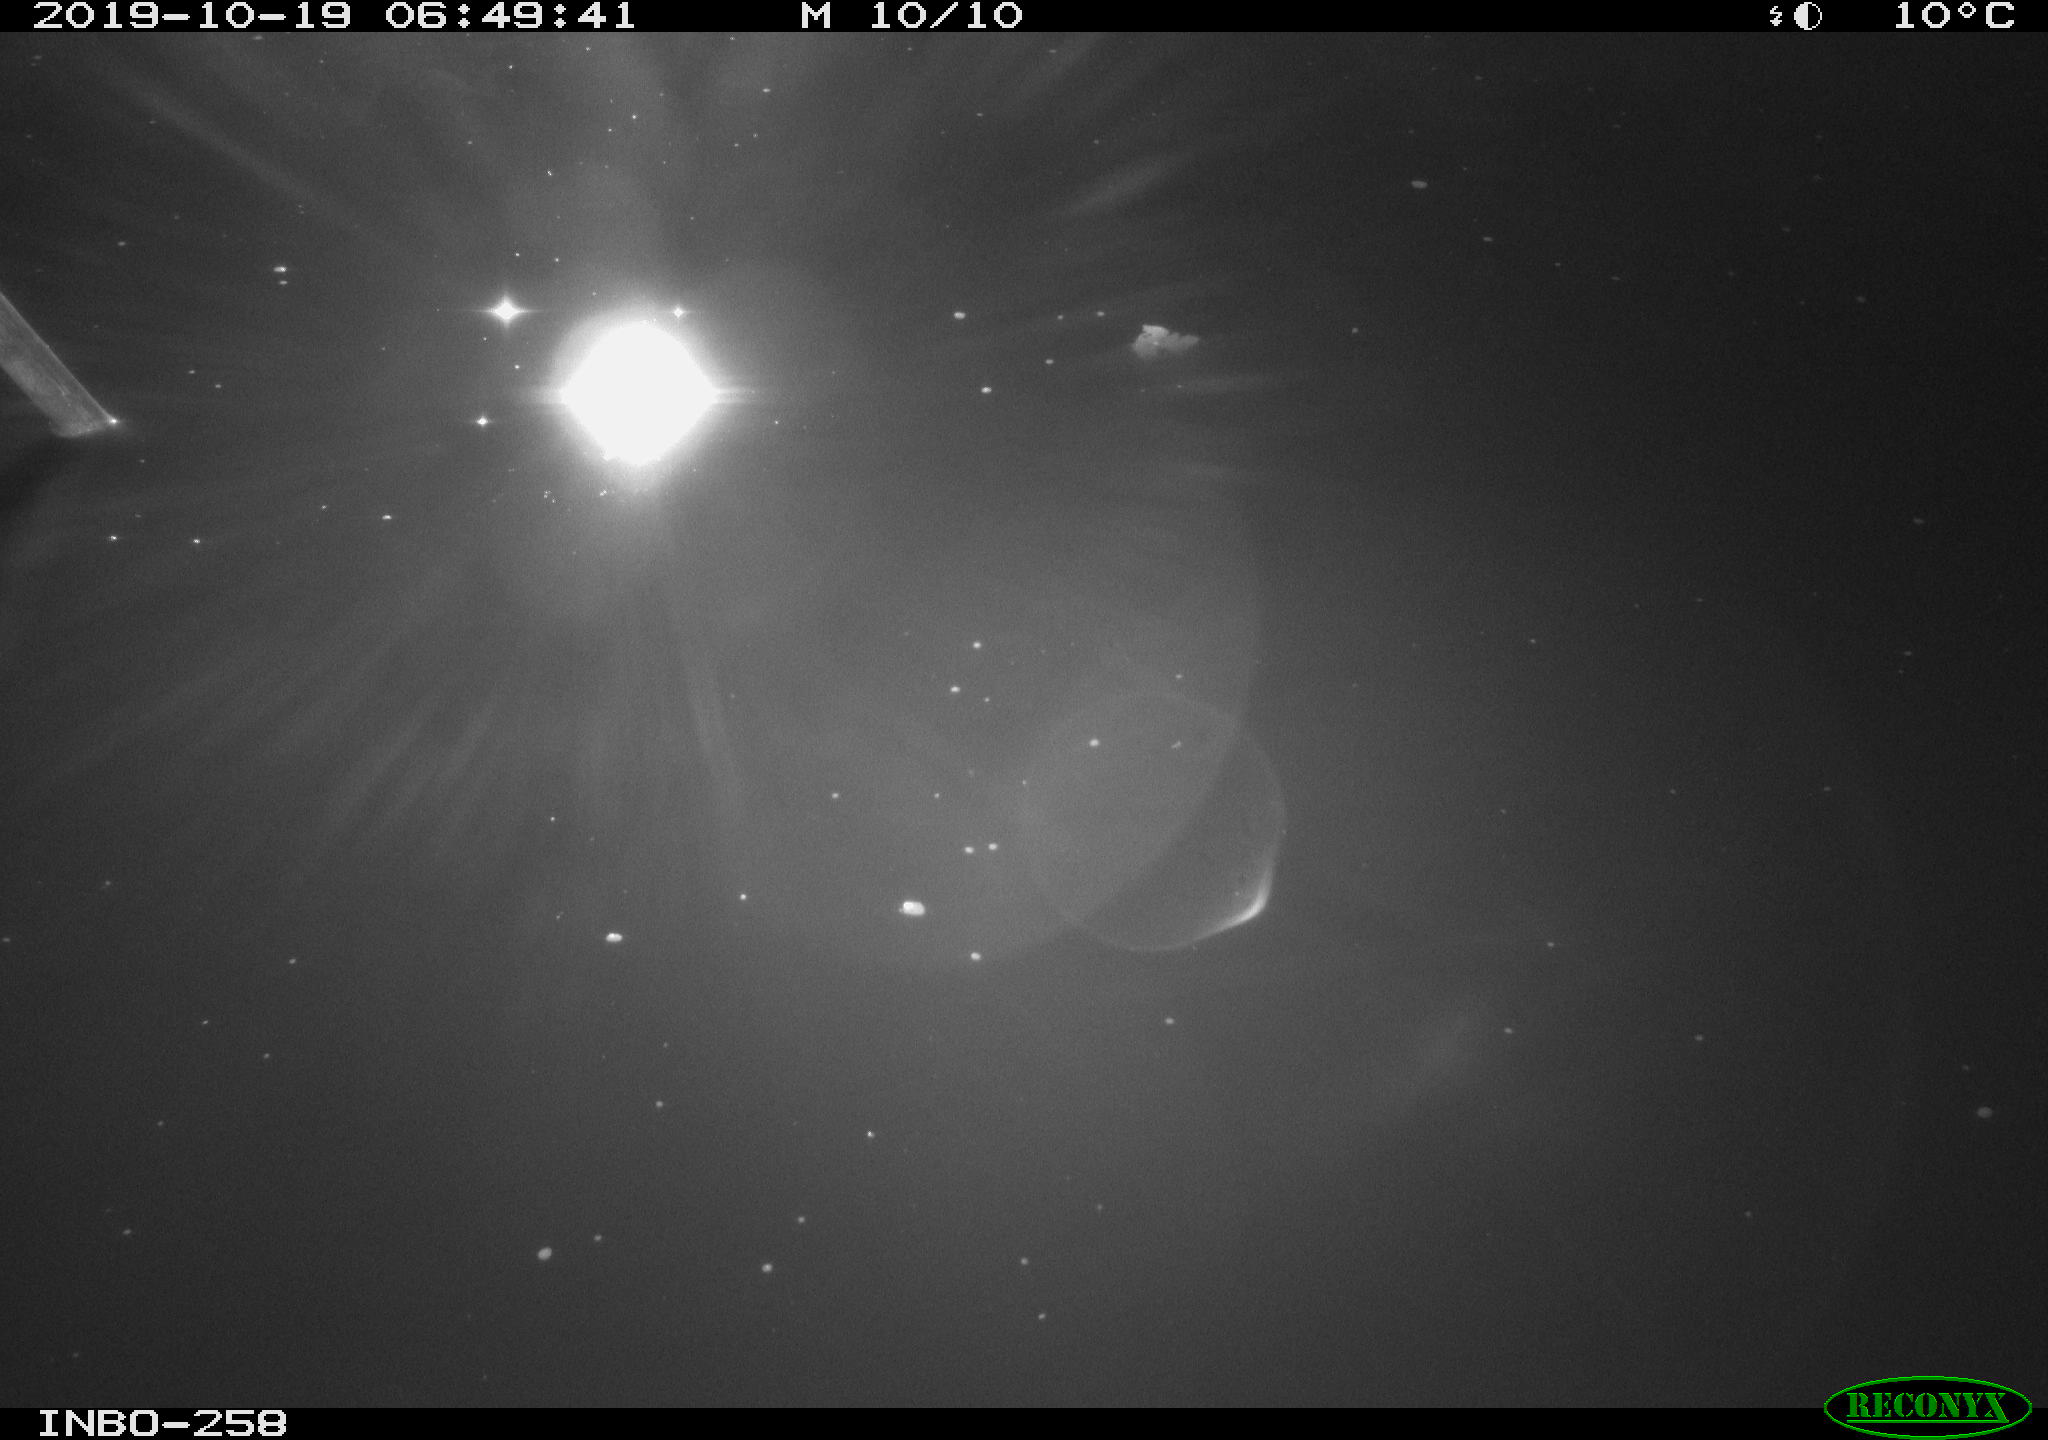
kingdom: Animalia
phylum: Chordata
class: Aves
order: Anseriformes
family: Anatidae
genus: Anas
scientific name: Anas platyrhynchos
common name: Mallard
